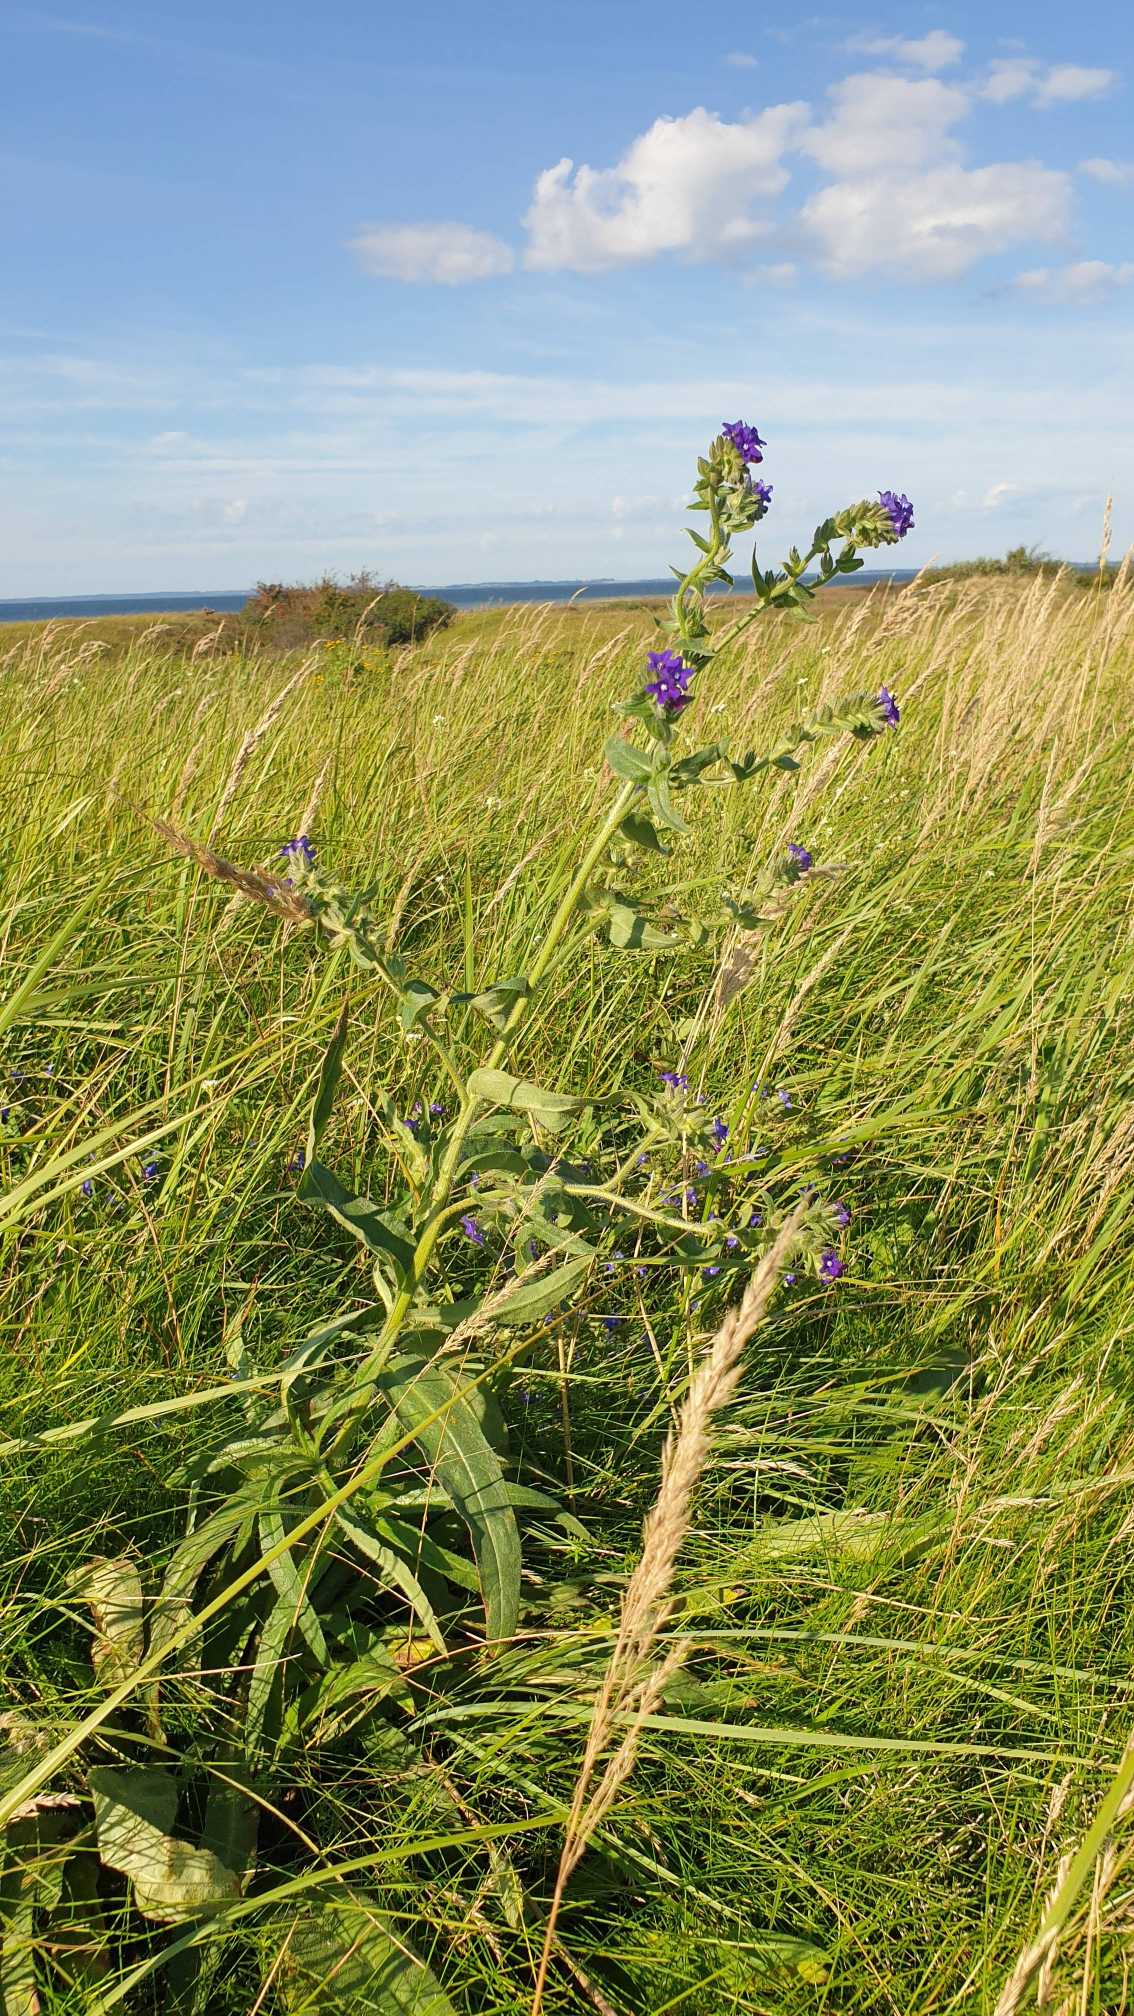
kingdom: Plantae
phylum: Tracheophyta
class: Magnoliopsida
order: Boraginales
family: Boraginaceae
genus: Anchusa
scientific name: Anchusa officinalis
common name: Læge-oksetunge
